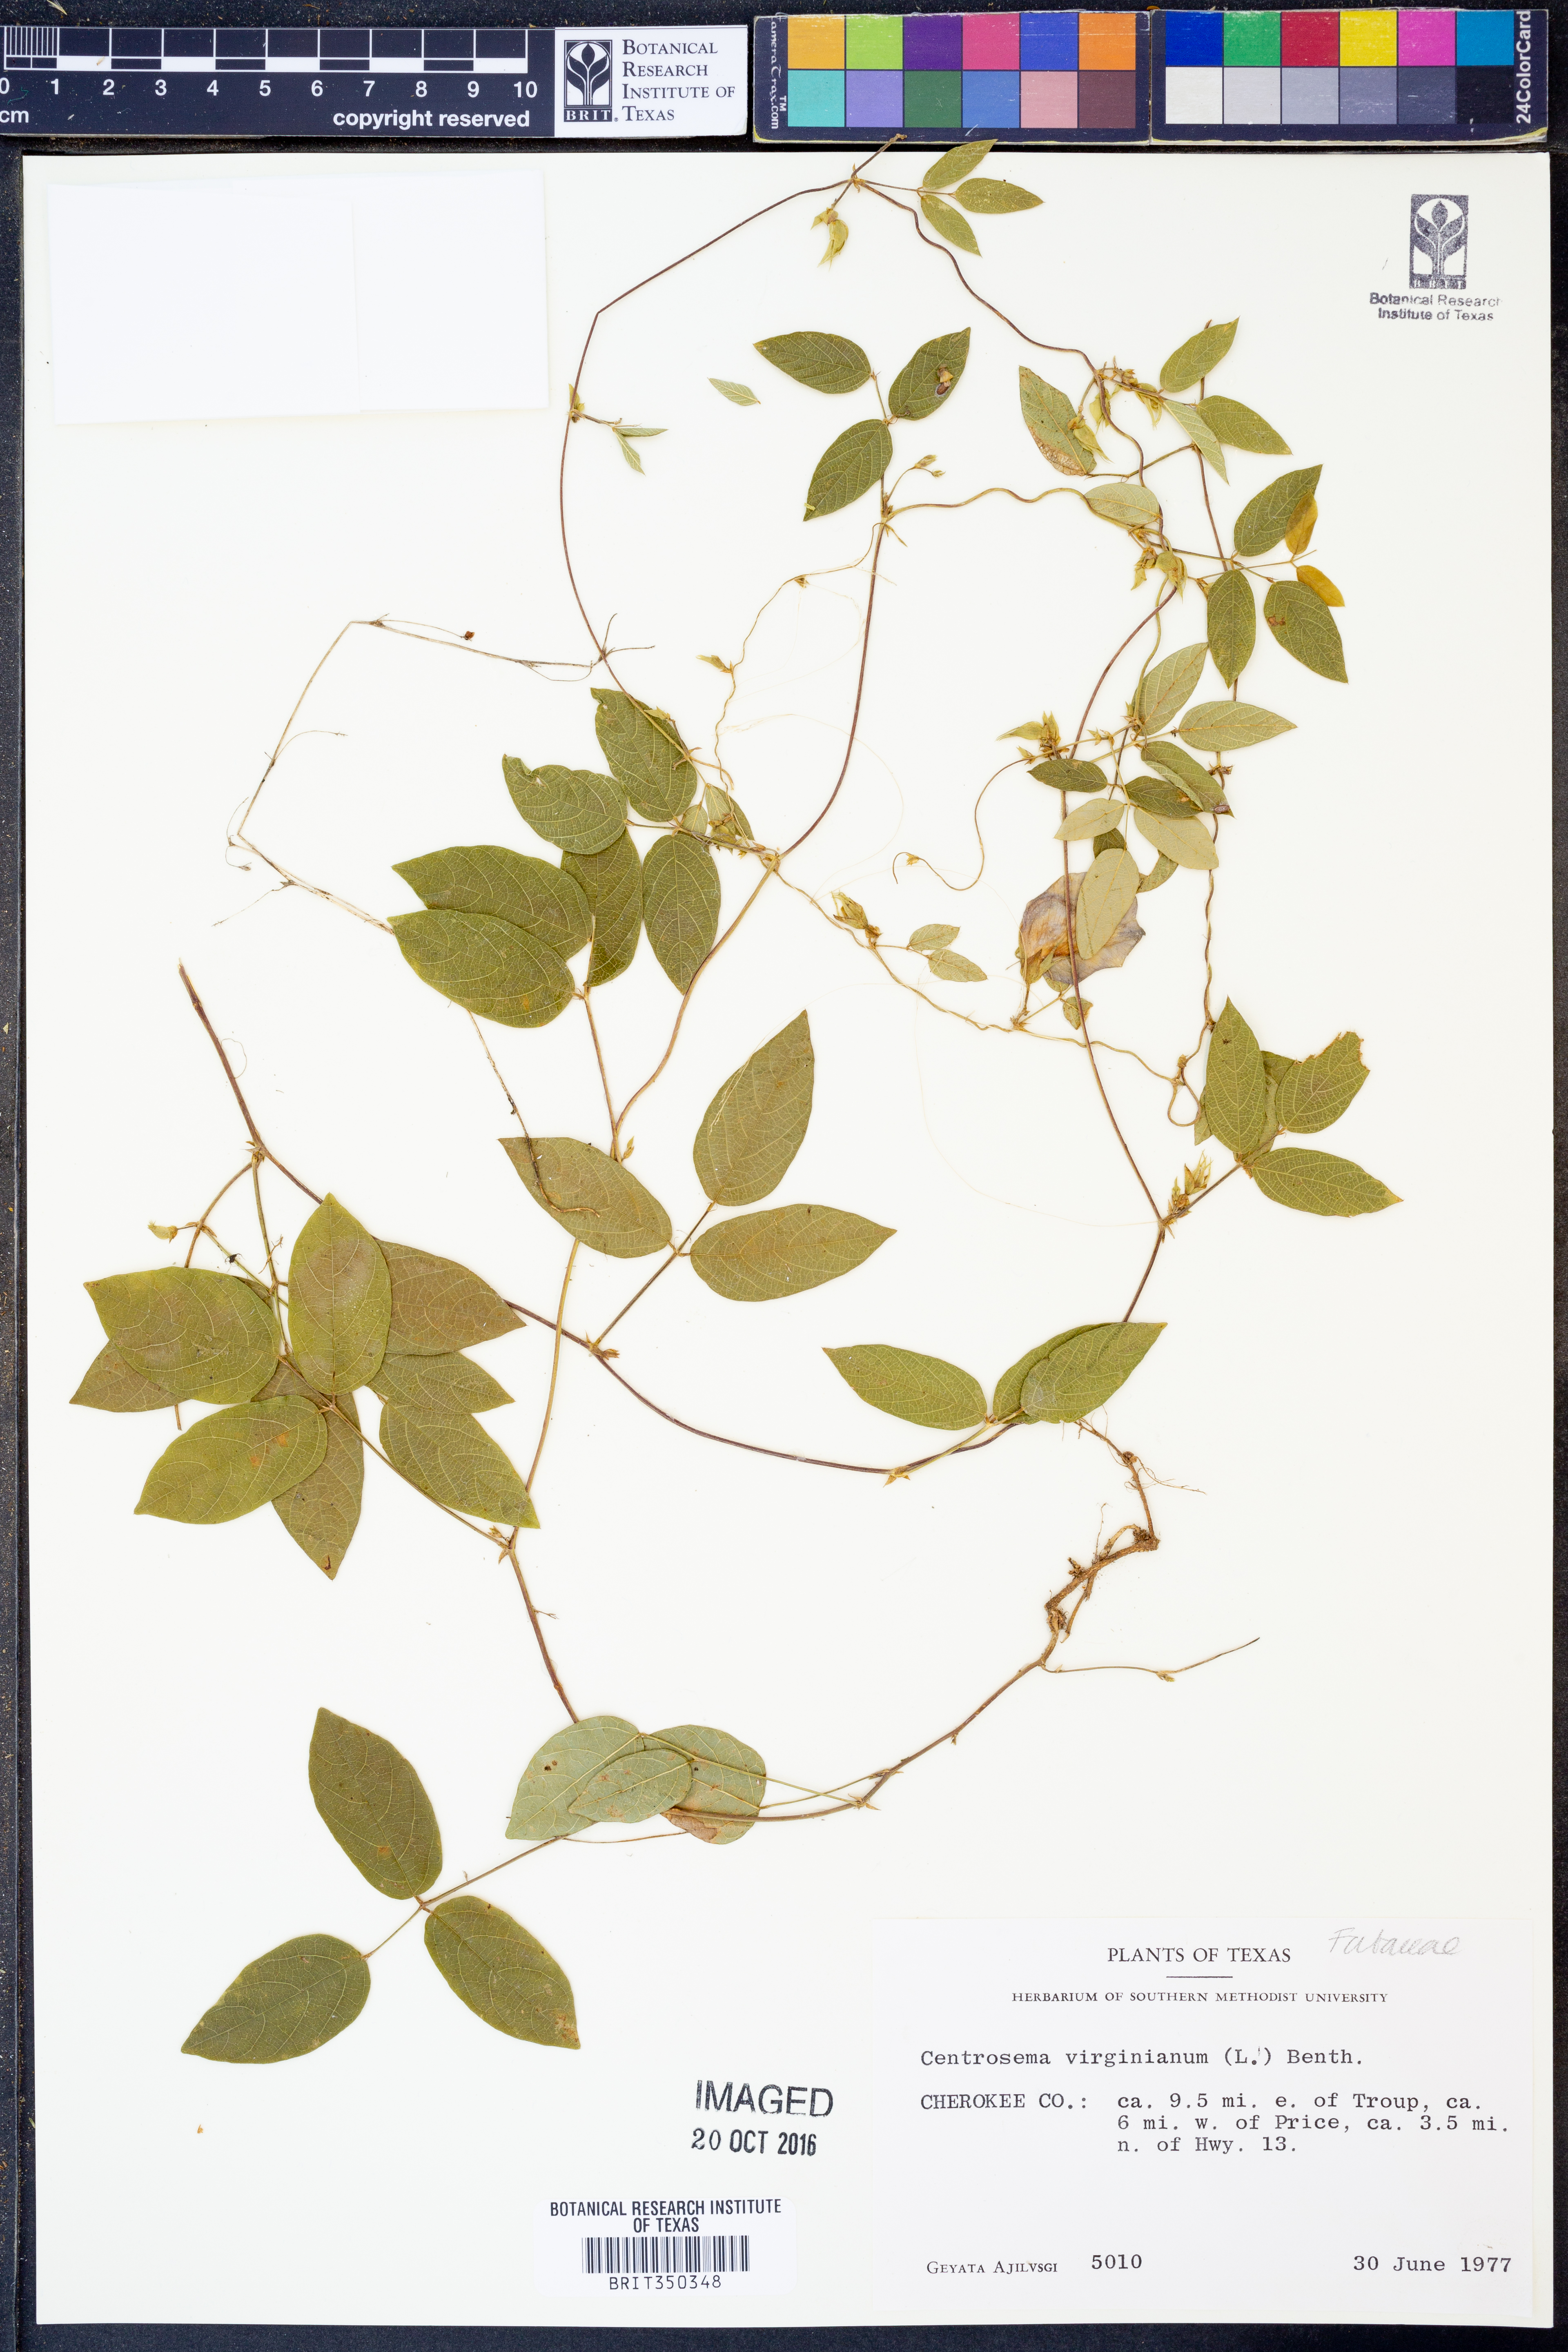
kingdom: Plantae
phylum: Tracheophyta
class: Magnoliopsida
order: Fabales
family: Fabaceae
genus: Centrosema
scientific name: Centrosema virginianum
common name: Butterfly-pea
